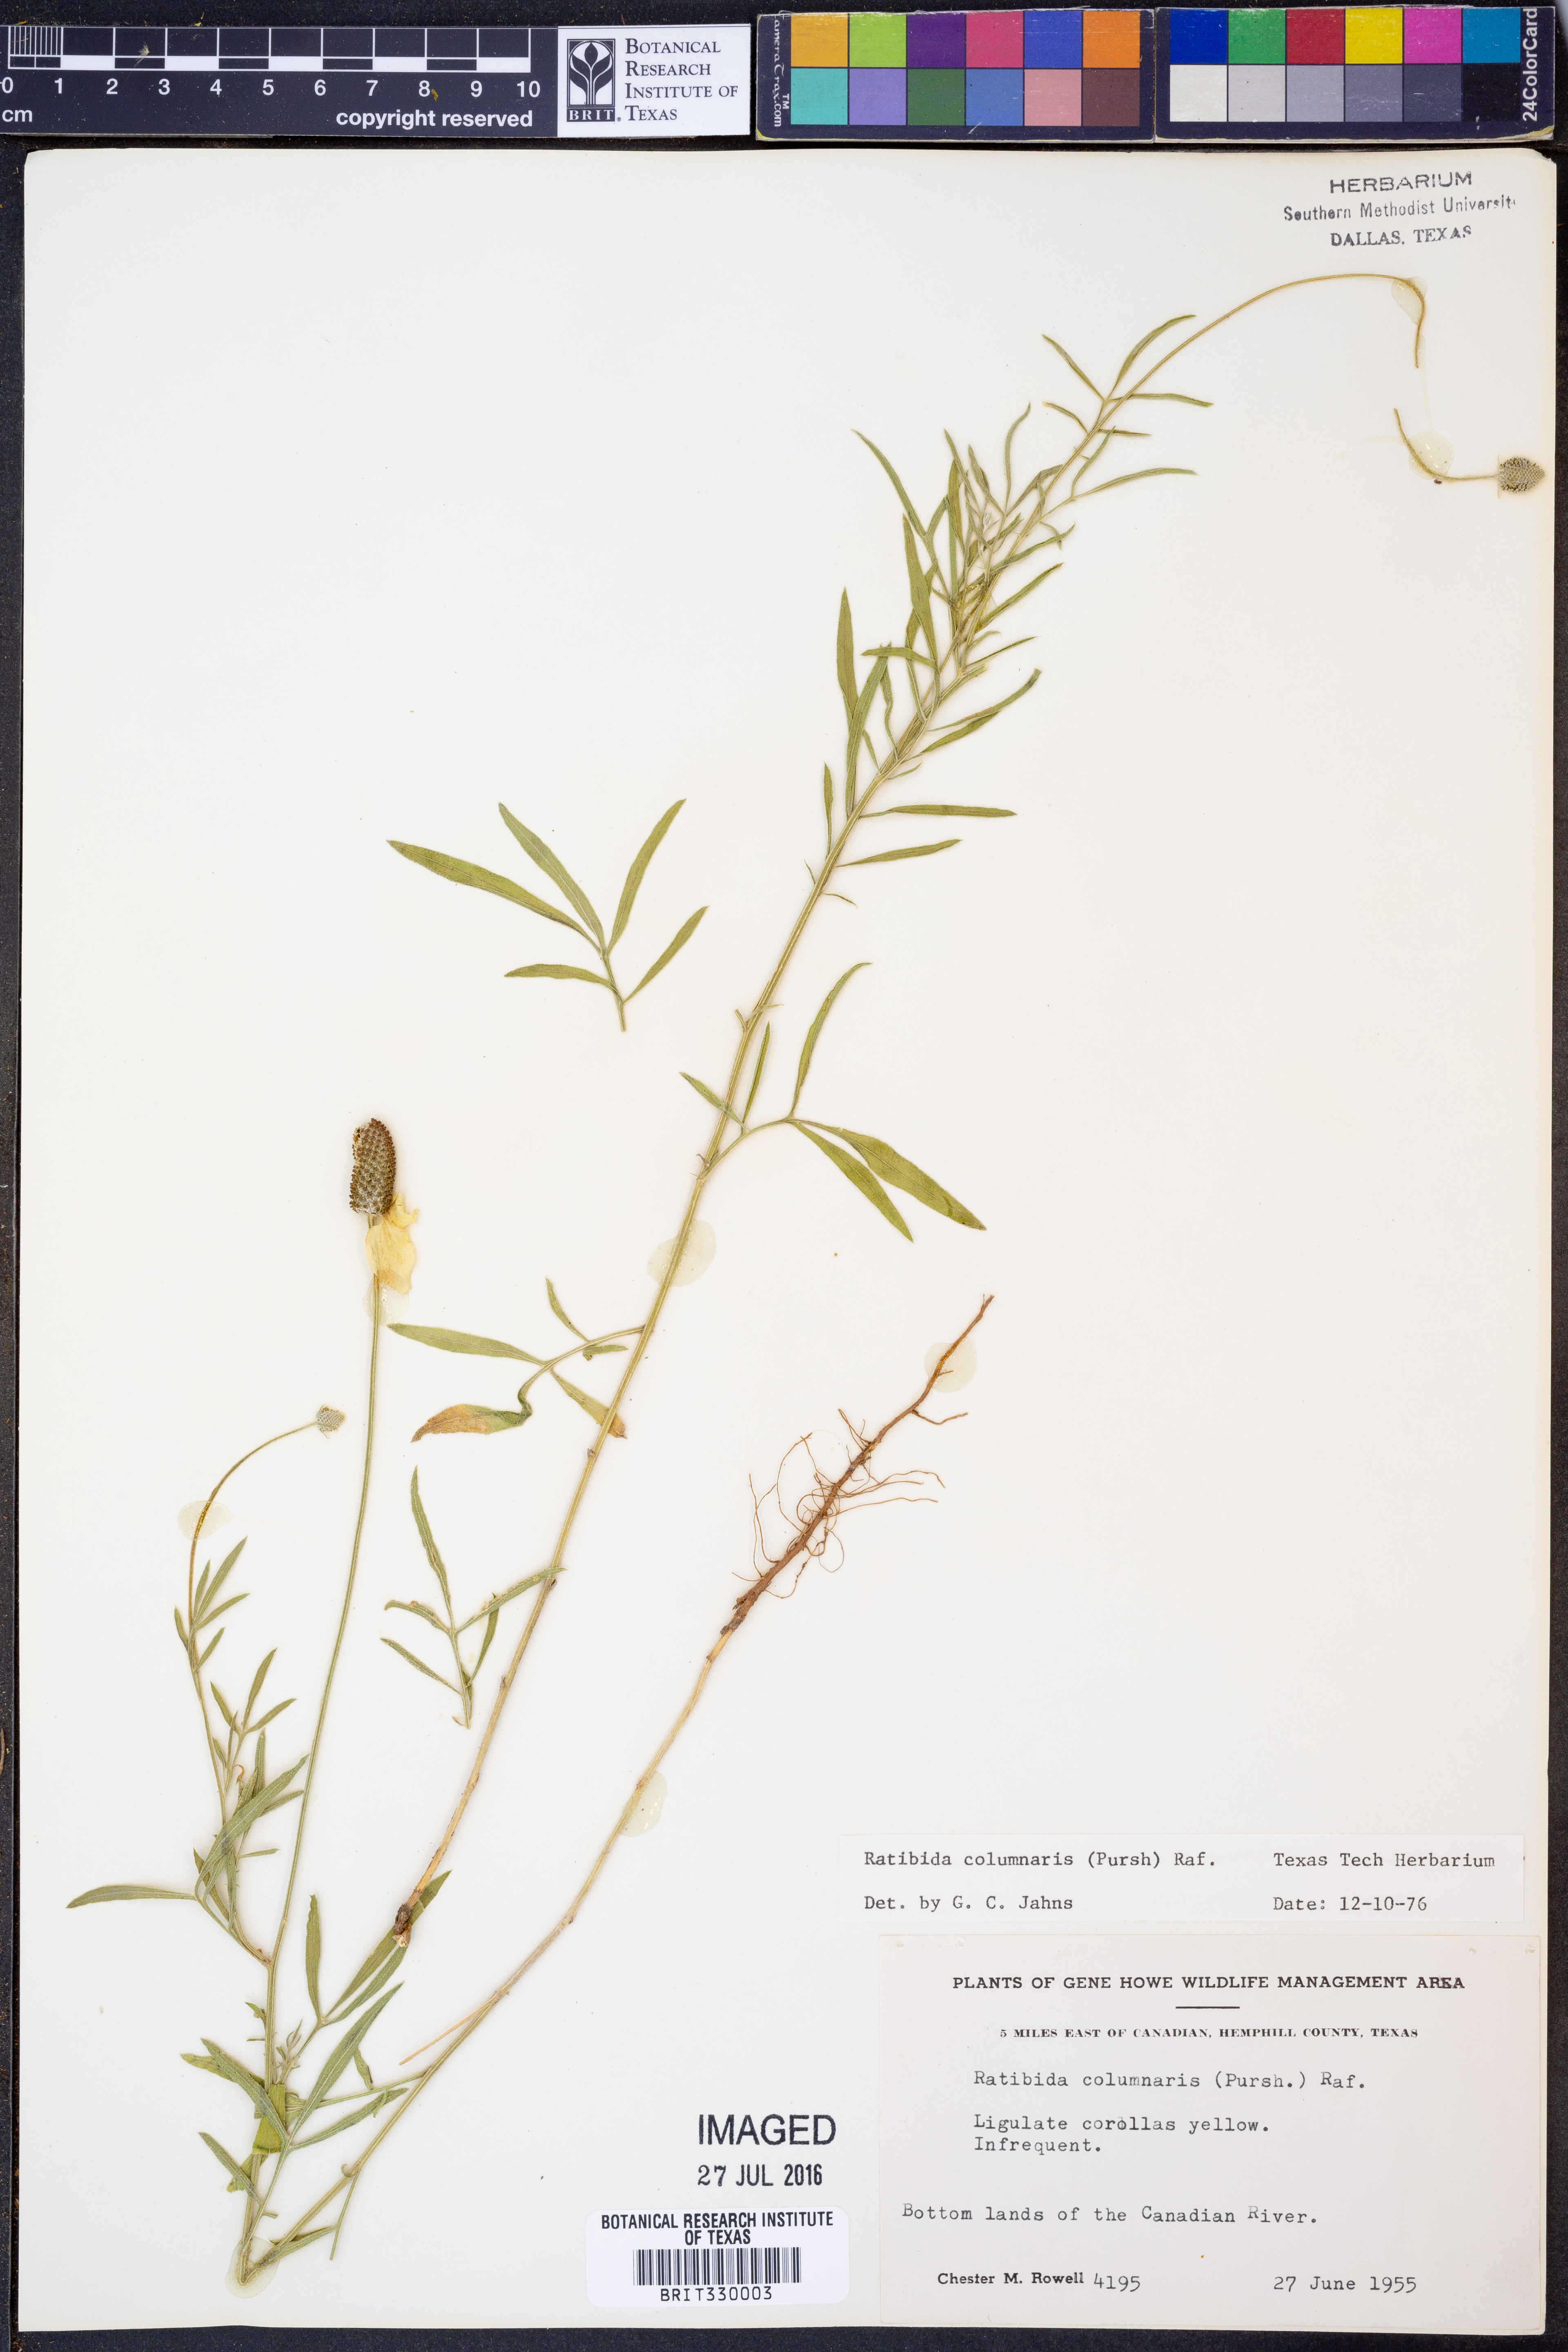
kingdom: Plantae
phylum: Tracheophyta
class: Magnoliopsida
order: Asterales
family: Asteraceae
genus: Ratibida
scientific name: Ratibida columnifera
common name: Prairie coneflower
